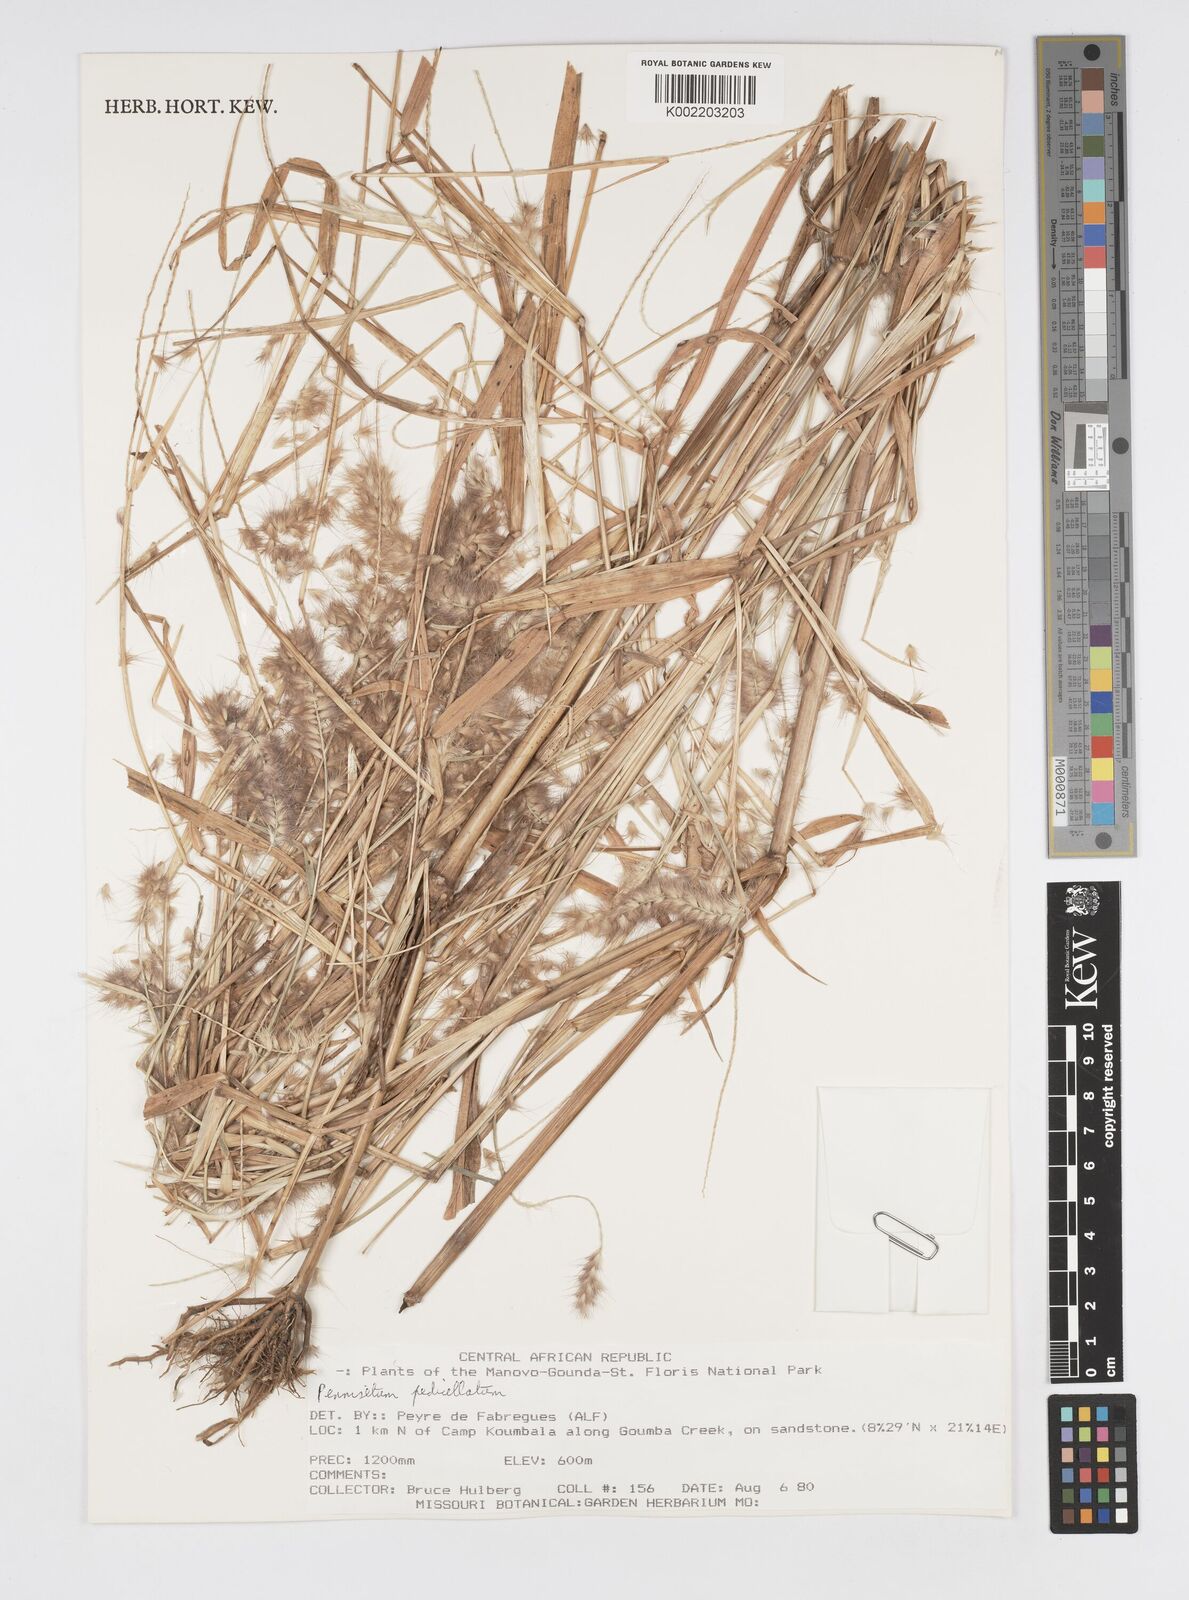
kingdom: Plantae
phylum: Tracheophyta
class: Liliopsida
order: Poales
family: Poaceae
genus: Cenchrus
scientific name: Cenchrus pedicellatus
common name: Hairy fountain grass
